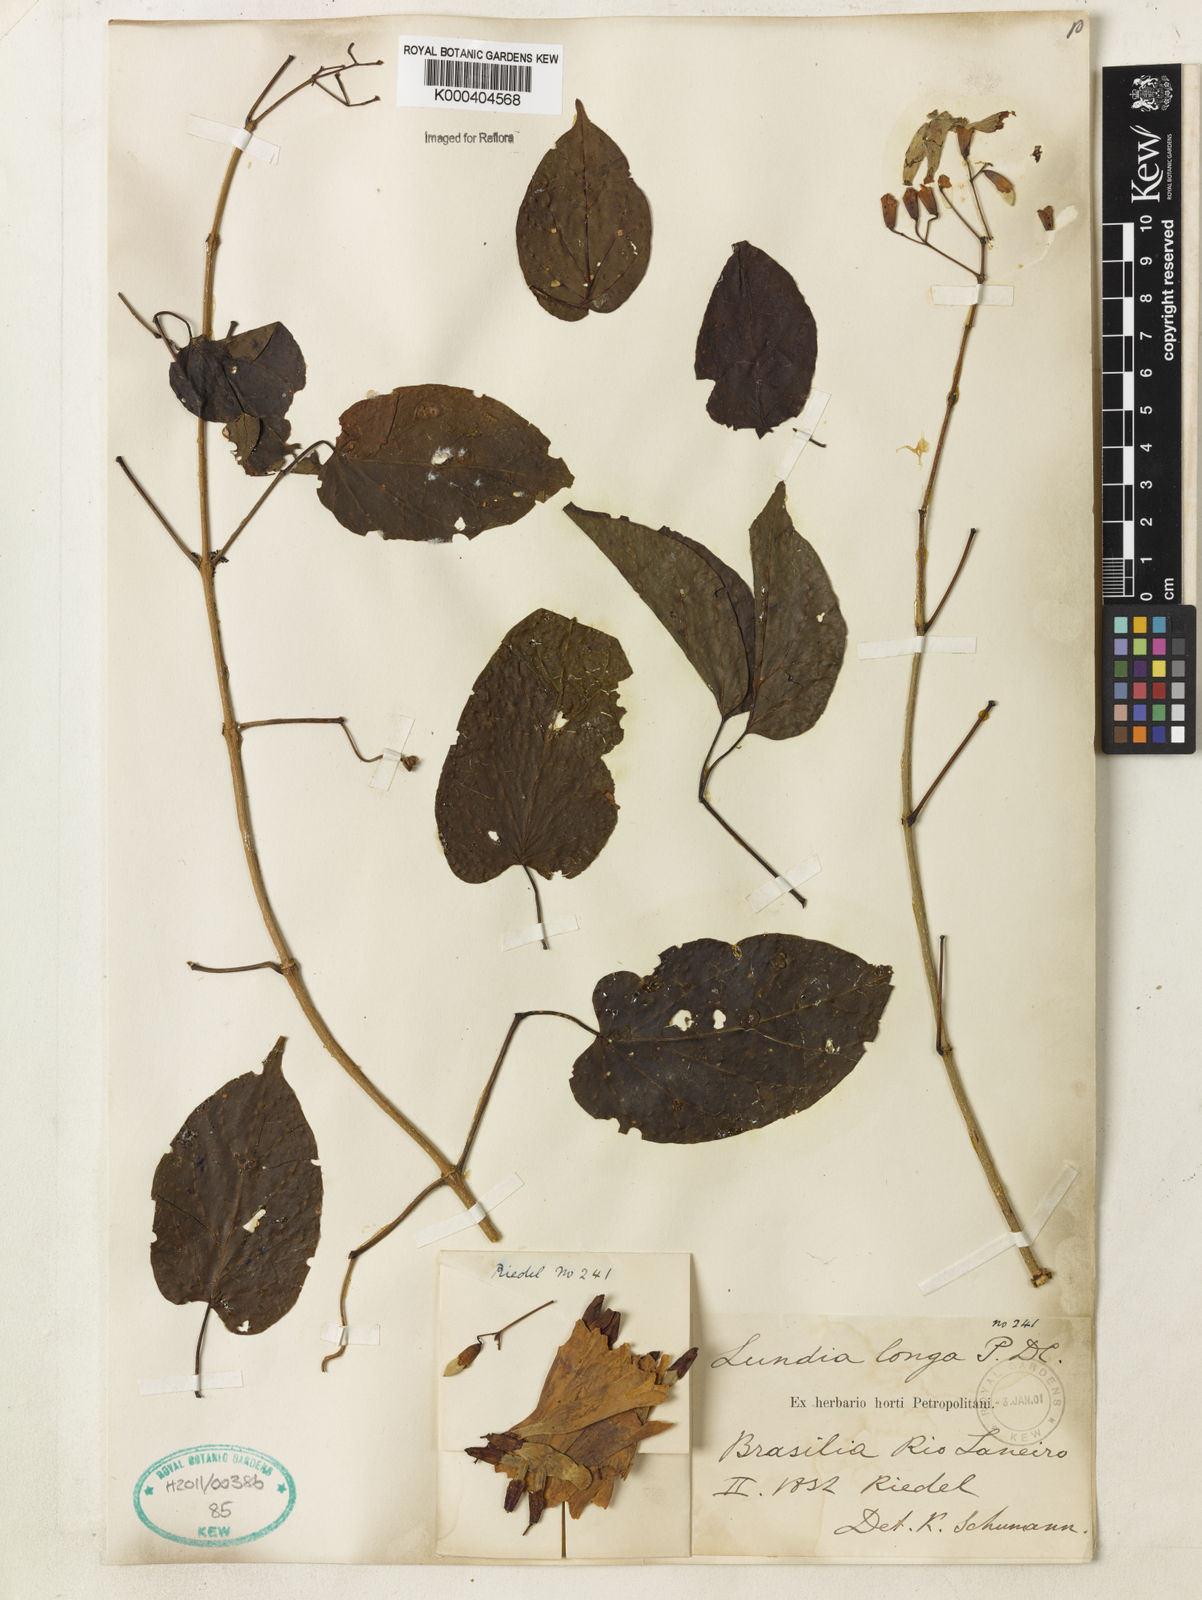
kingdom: Plantae
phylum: Tracheophyta
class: Magnoliopsida
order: Lamiales
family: Bignoniaceae
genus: Lundia
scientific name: Lundia longa
